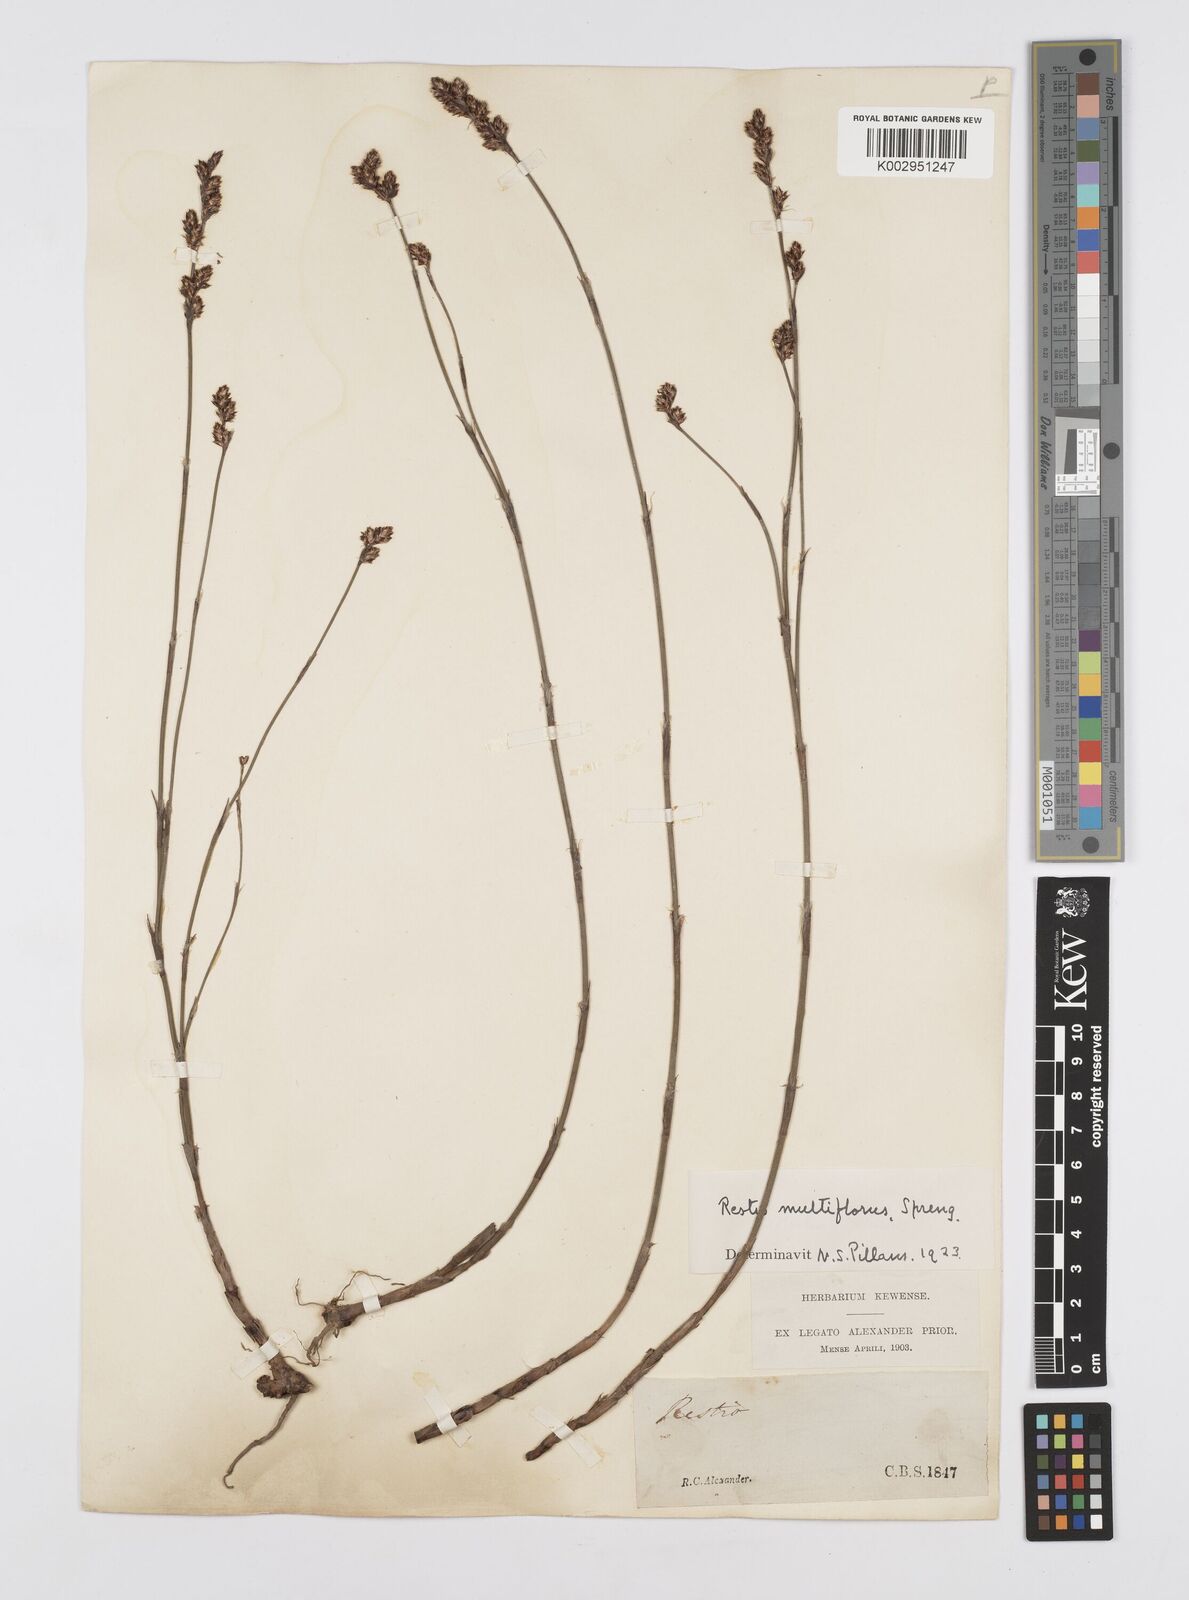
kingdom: Plantae
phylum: Tracheophyta
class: Liliopsida
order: Poales
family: Restionaceae
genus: Restio
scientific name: Restio multiflorus
